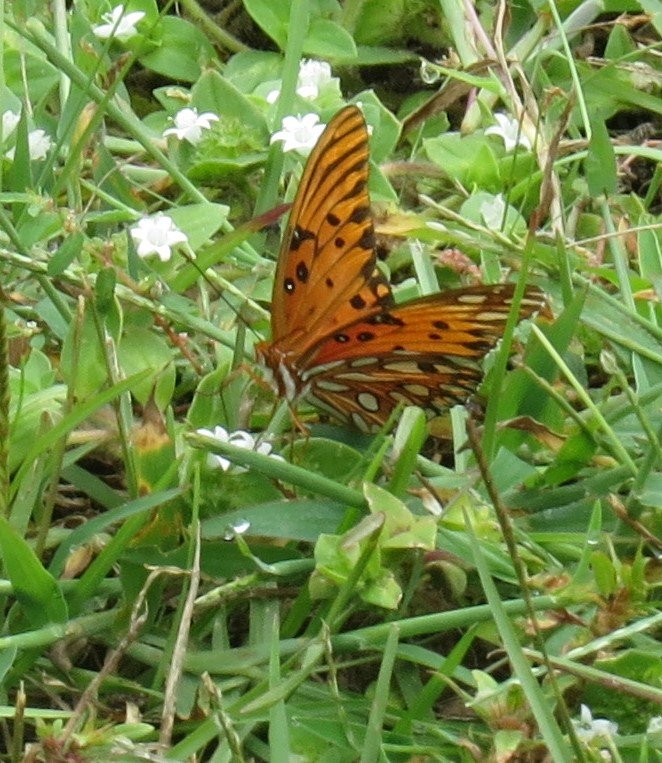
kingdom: Animalia
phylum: Arthropoda
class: Insecta
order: Lepidoptera
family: Nymphalidae
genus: Dione
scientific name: Dione vanillae
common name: Gulf Fritillary
